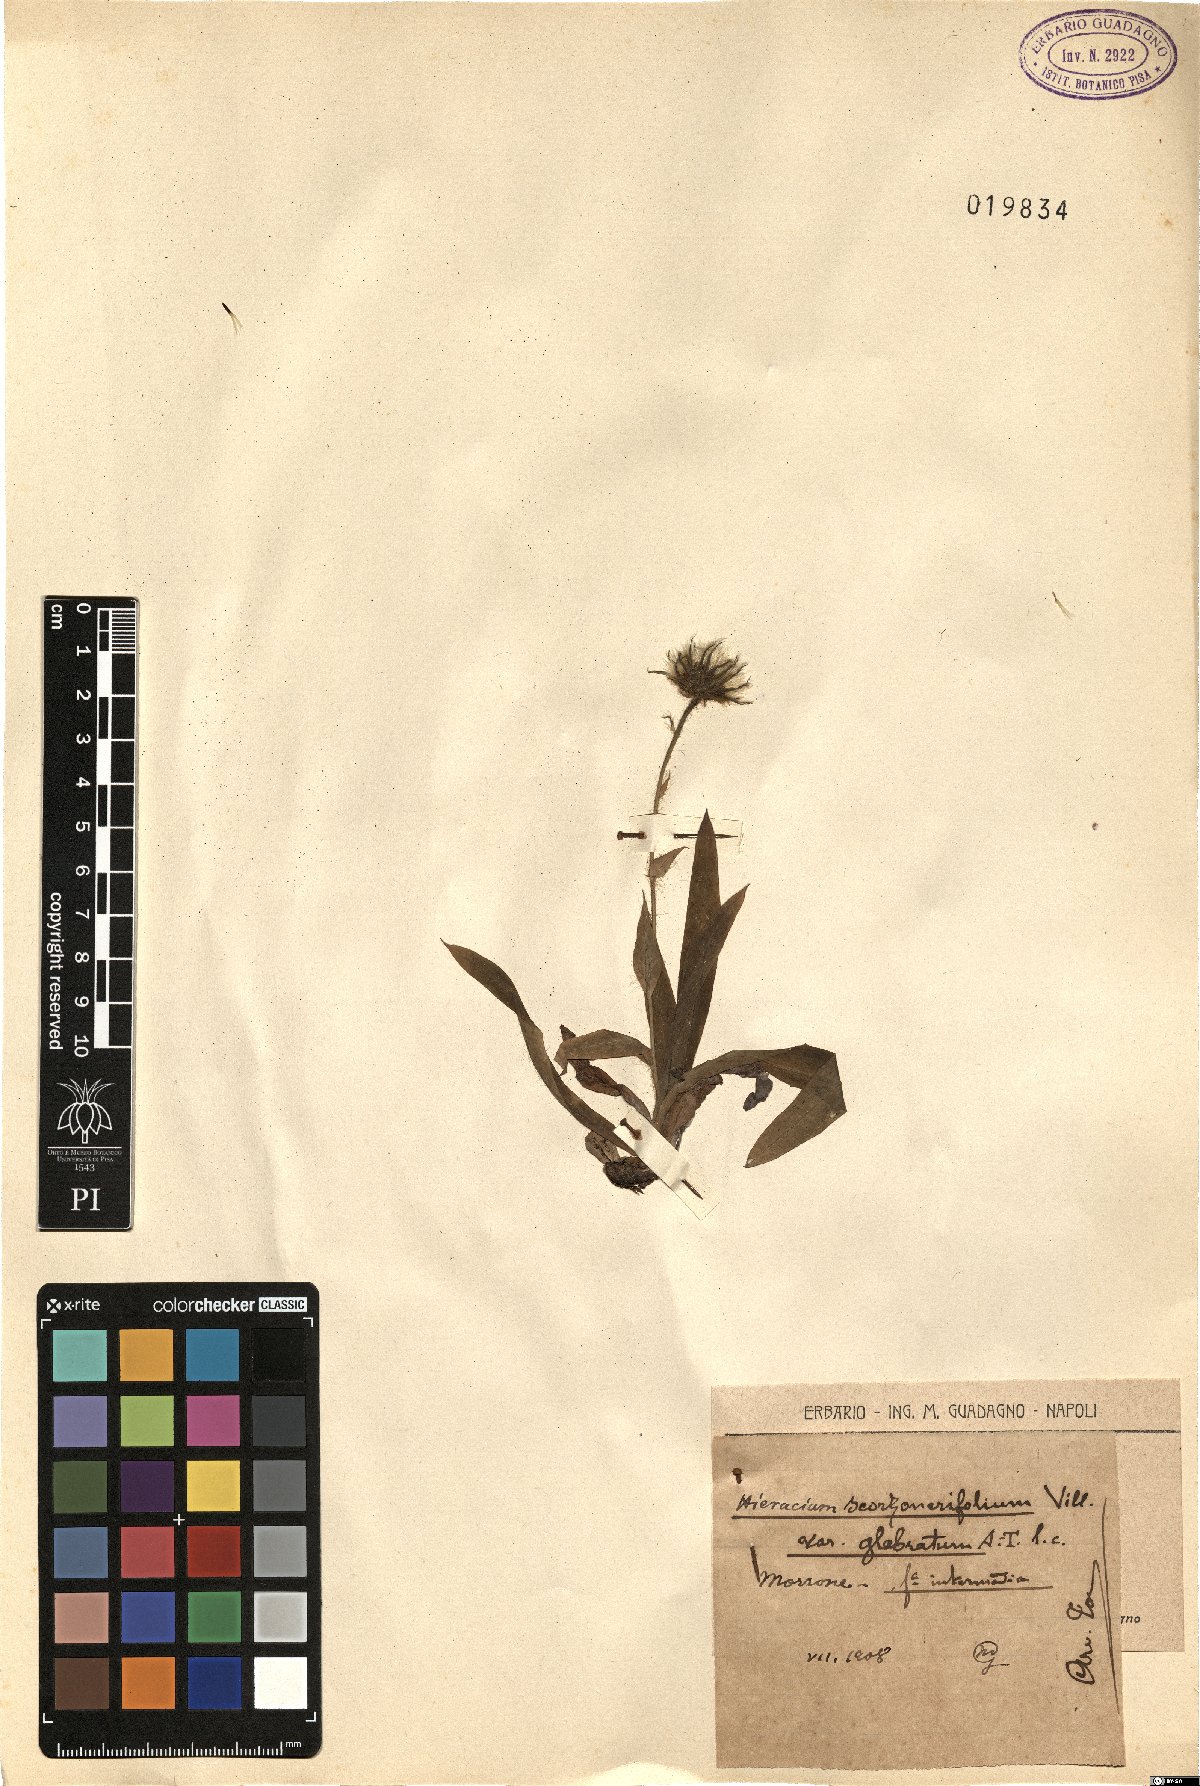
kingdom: Plantae
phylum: Tracheophyta
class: Magnoliopsida
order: Asterales
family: Asteraceae
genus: Hieracium
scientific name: Hieracium scorzonerifolium
